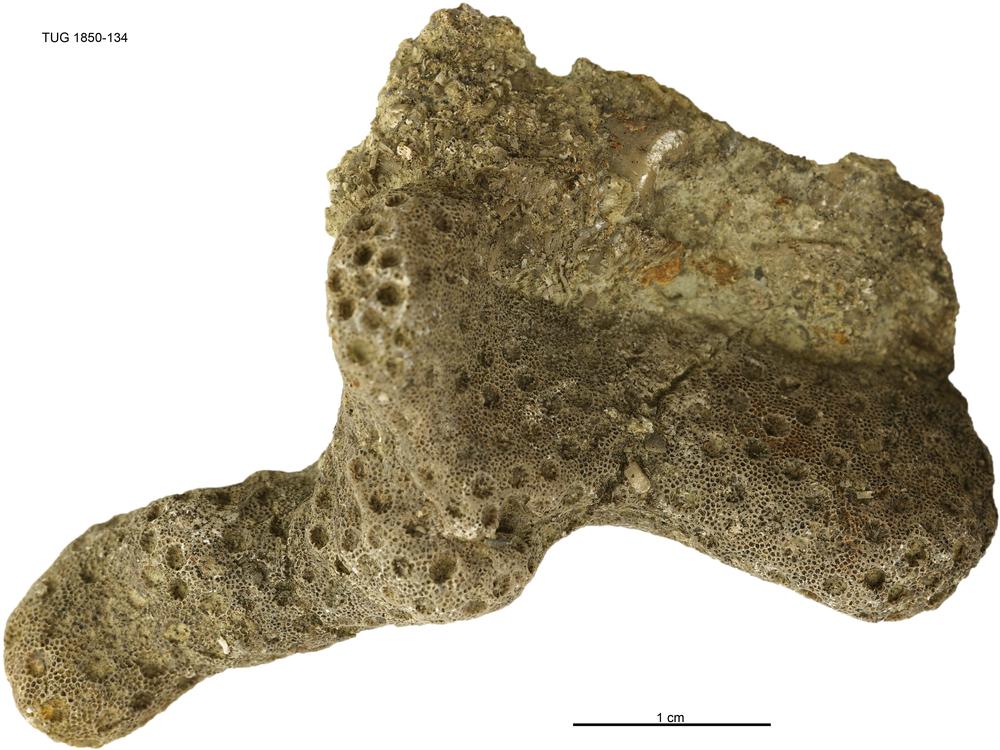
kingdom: Animalia
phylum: Cnidaria
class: Anthozoa
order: Heliolitina
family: Heliolitidae
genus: Heliolites
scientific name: Heliolites
